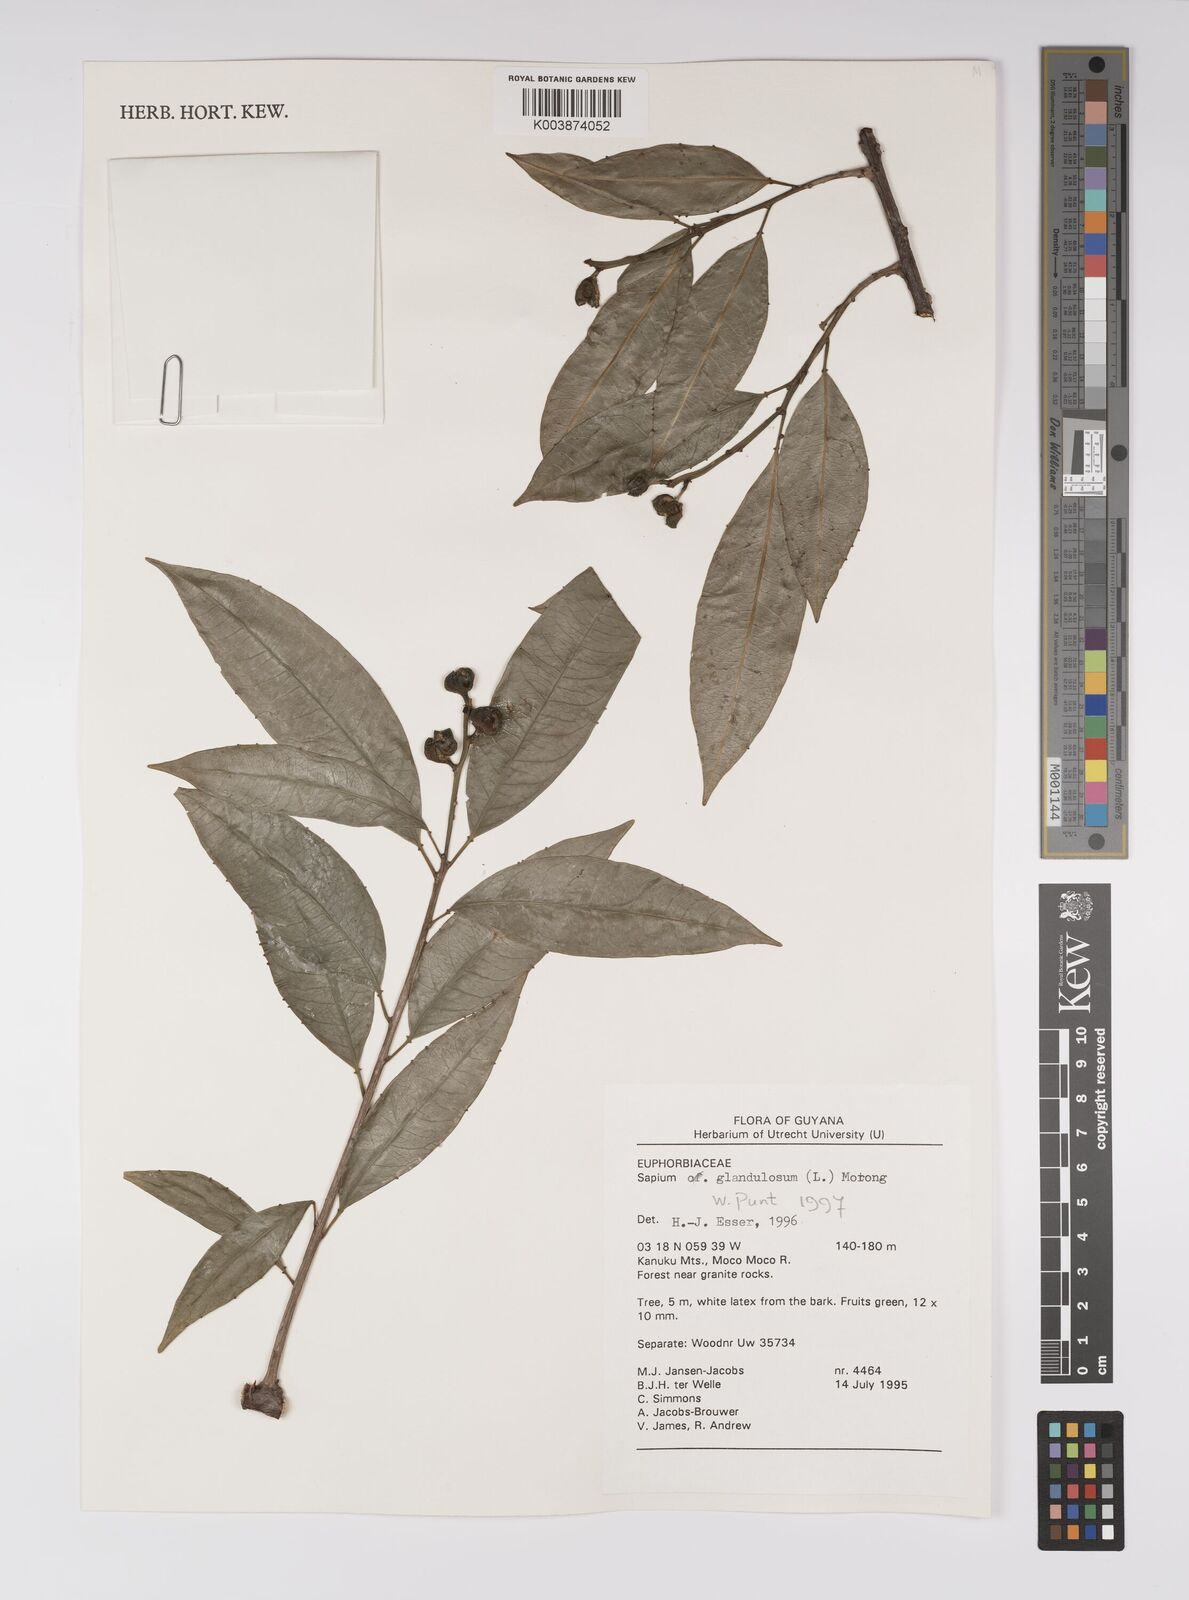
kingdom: Plantae
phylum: Tracheophyta
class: Magnoliopsida
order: Malpighiales
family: Euphorbiaceae
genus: Sapium
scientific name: Sapium glandulosum
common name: Milktree
